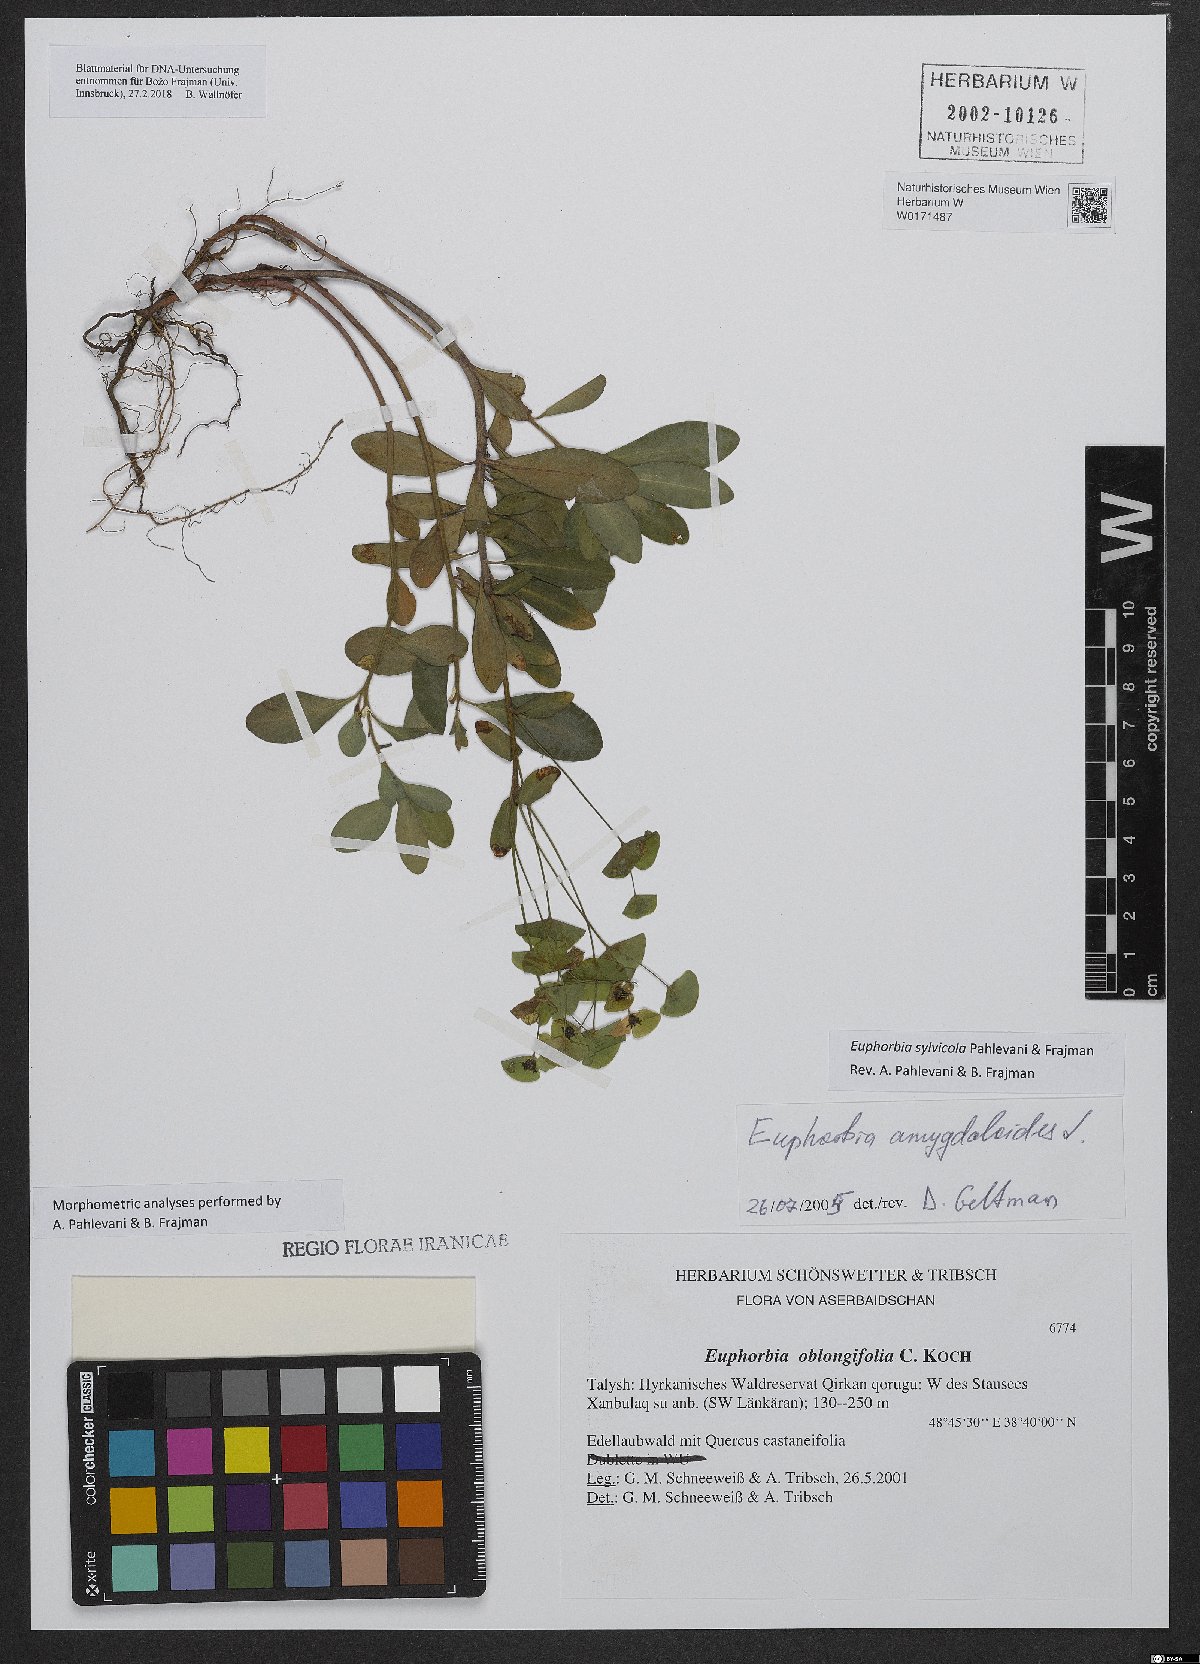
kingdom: Plantae
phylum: Tracheophyta
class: Magnoliopsida
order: Malpighiales
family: Euphorbiaceae
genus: Euphorbia
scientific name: Euphorbia juttae
